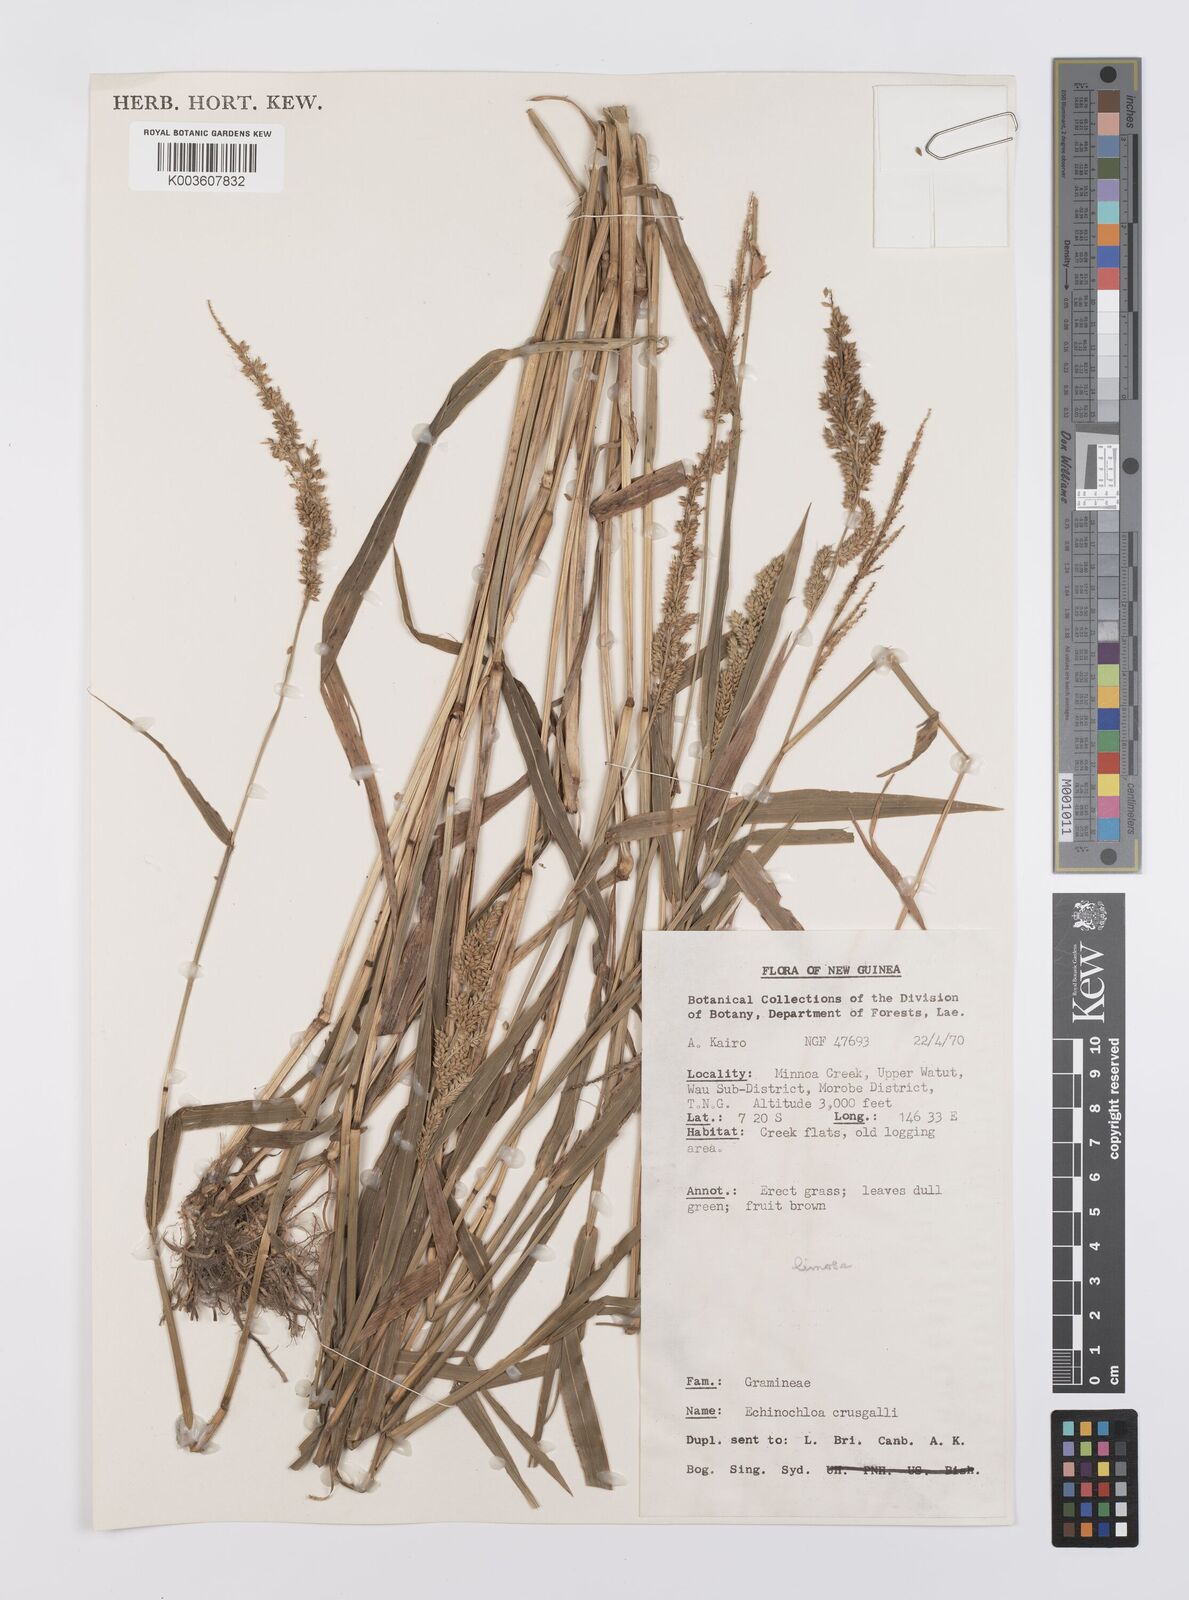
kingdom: Plantae
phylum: Tracheophyta
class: Liliopsida
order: Poales
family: Poaceae
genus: Echinochloa
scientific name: Echinochloa crus-galli
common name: Cockspur
